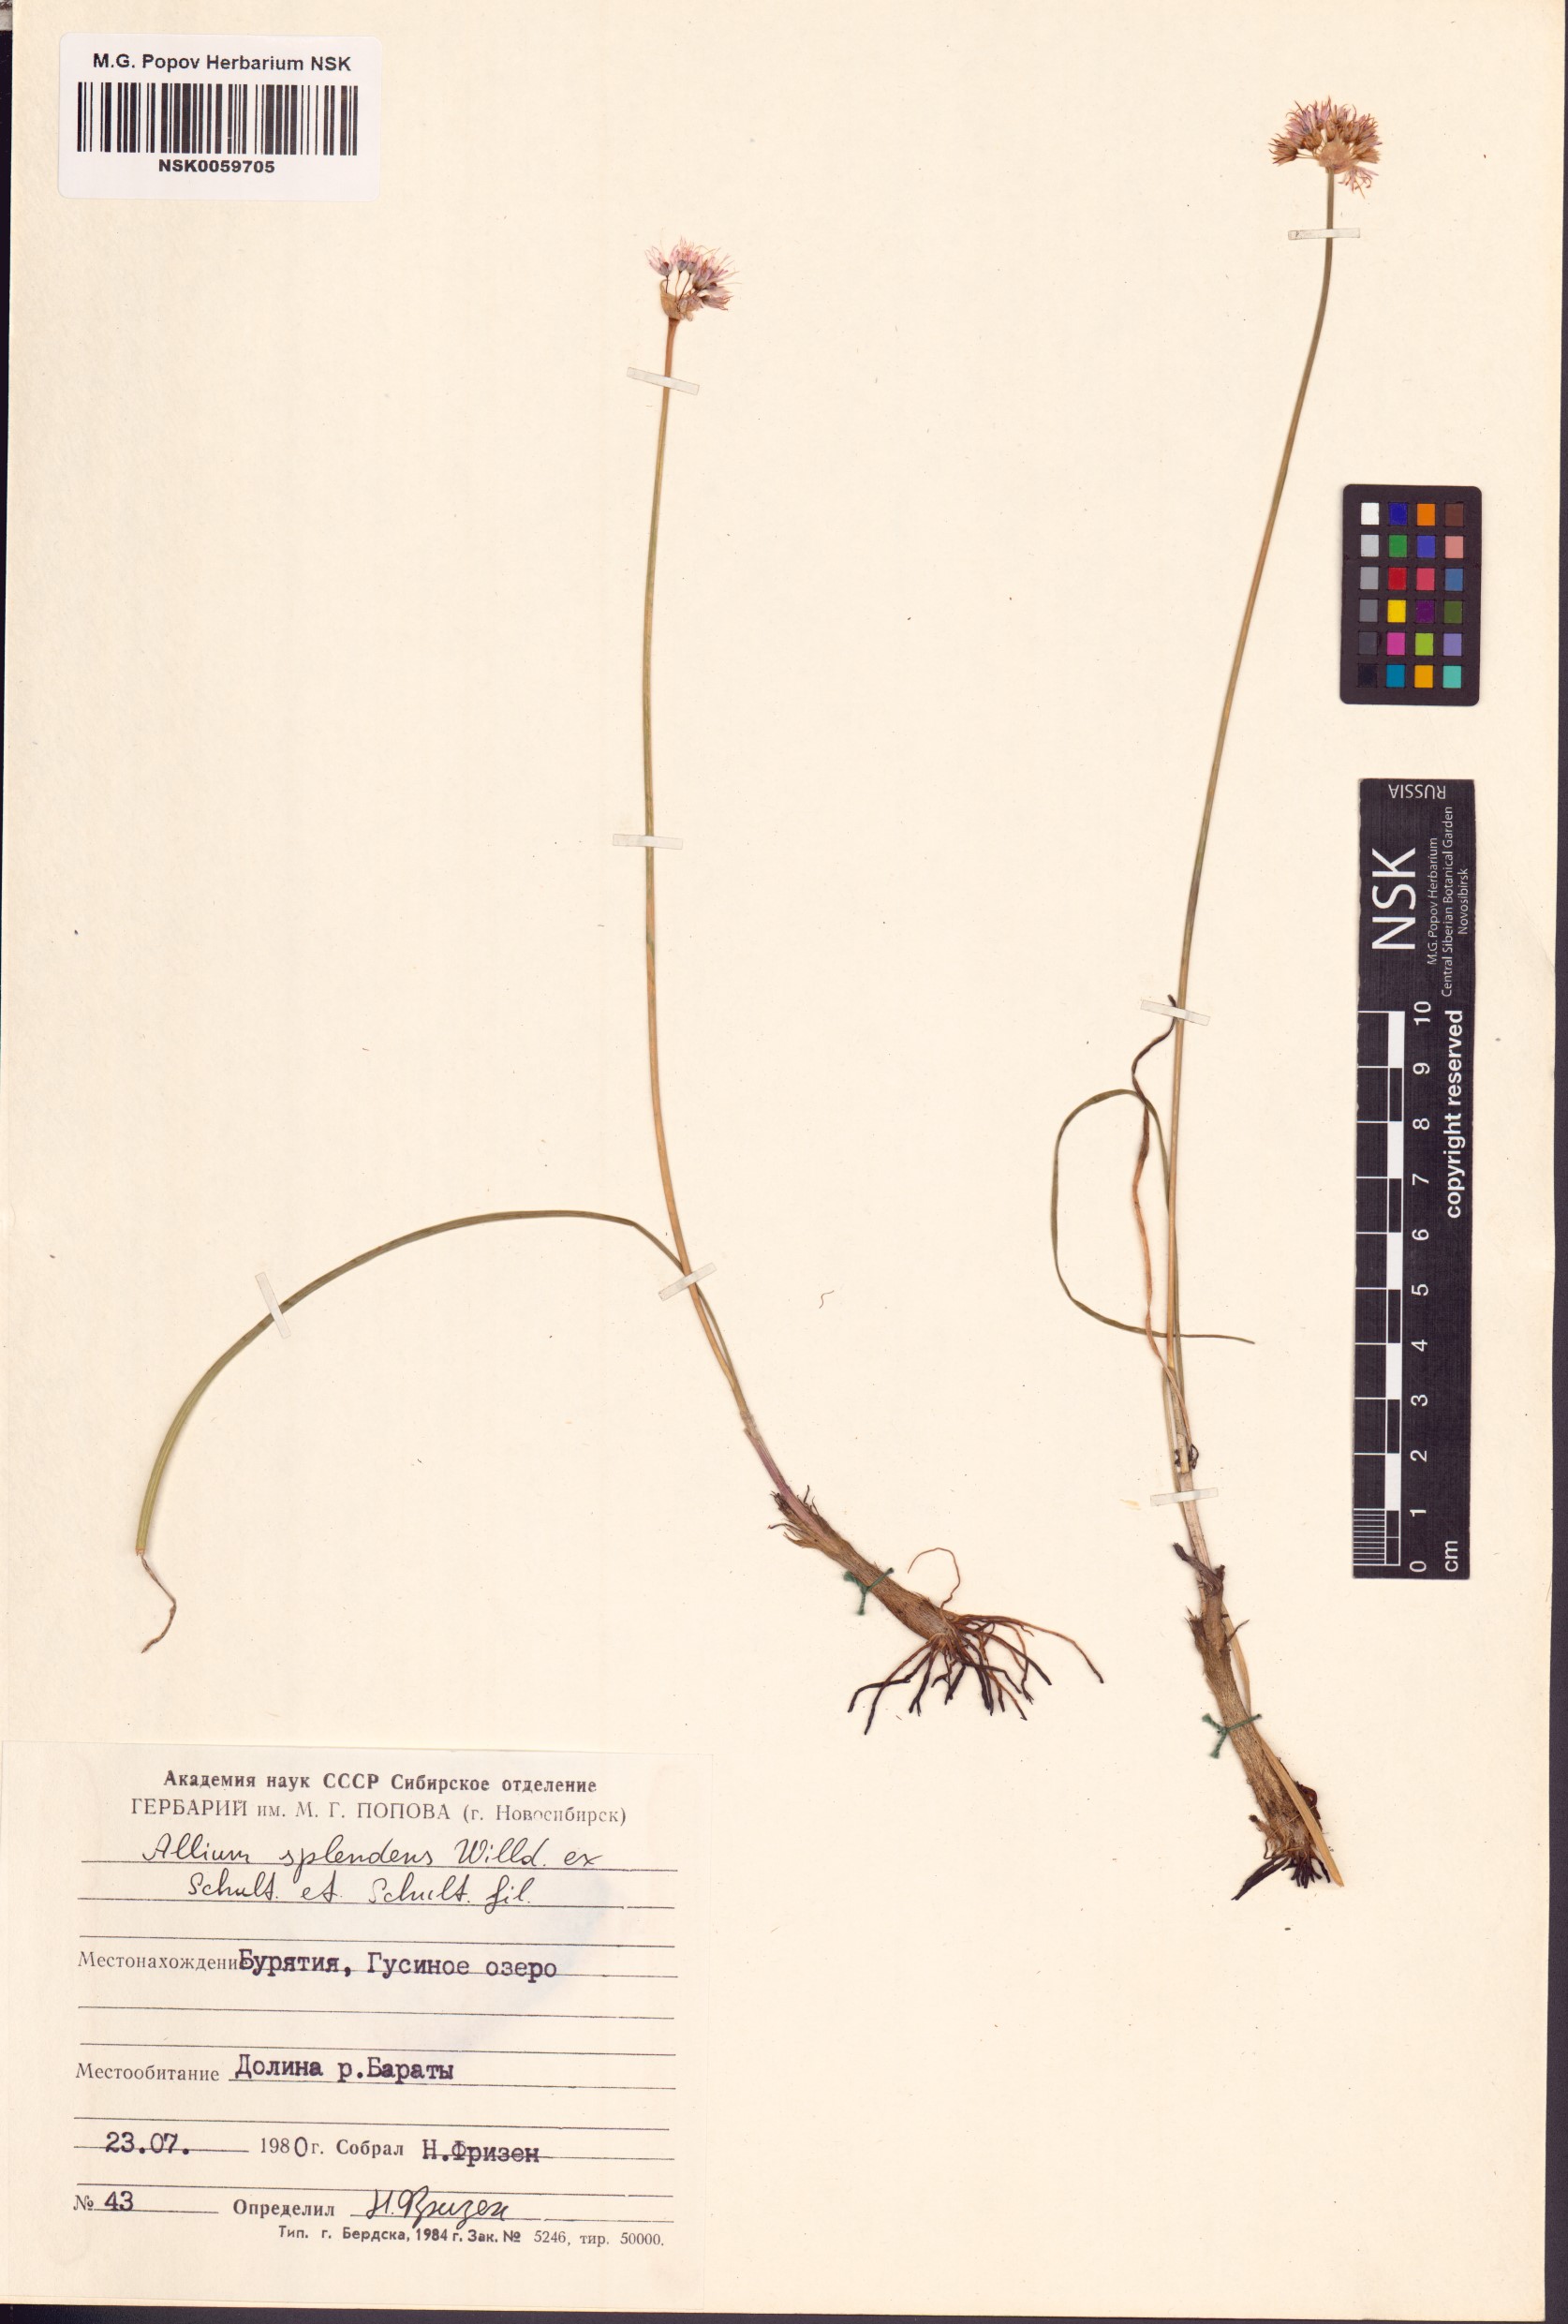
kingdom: Plantae
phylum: Tracheophyta
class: Liliopsida
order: Asparagales
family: Amaryllidaceae
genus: Allium
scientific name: Allium splendens
